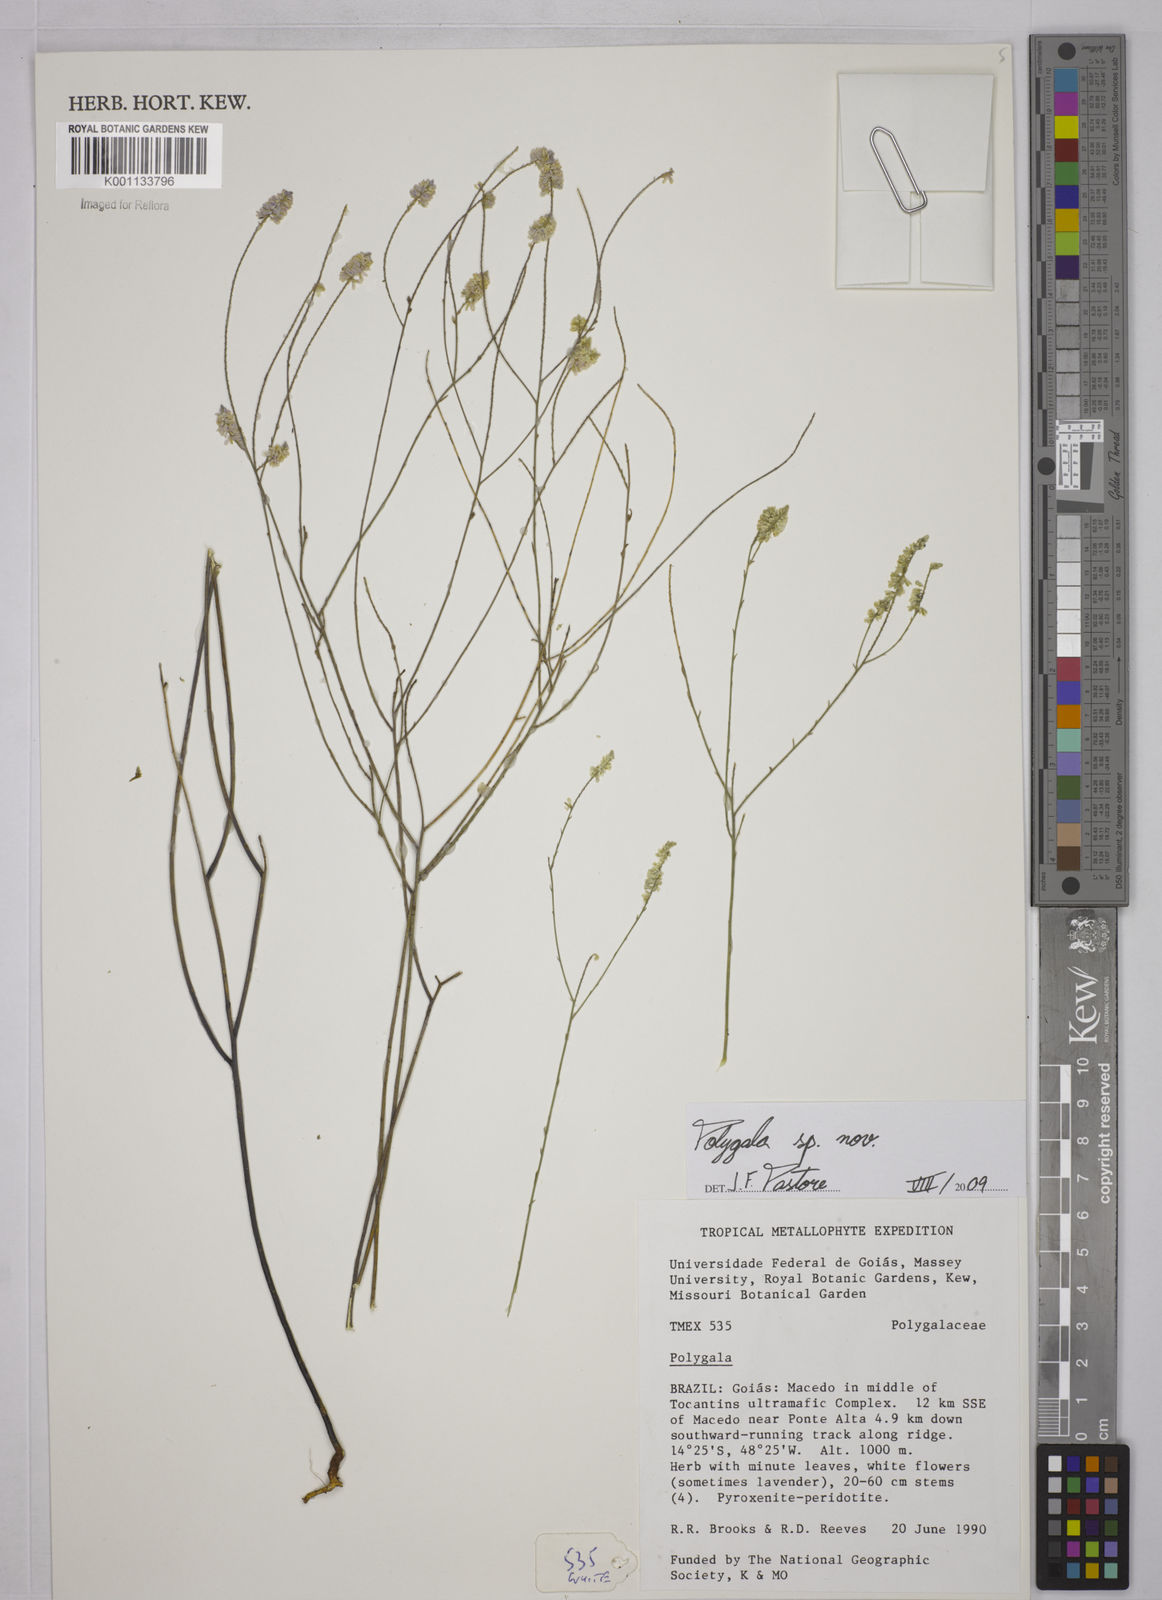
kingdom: Plantae
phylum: Tracheophyta
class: Magnoliopsida
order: Fabales
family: Polygalaceae
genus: Polygala
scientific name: Polygala
